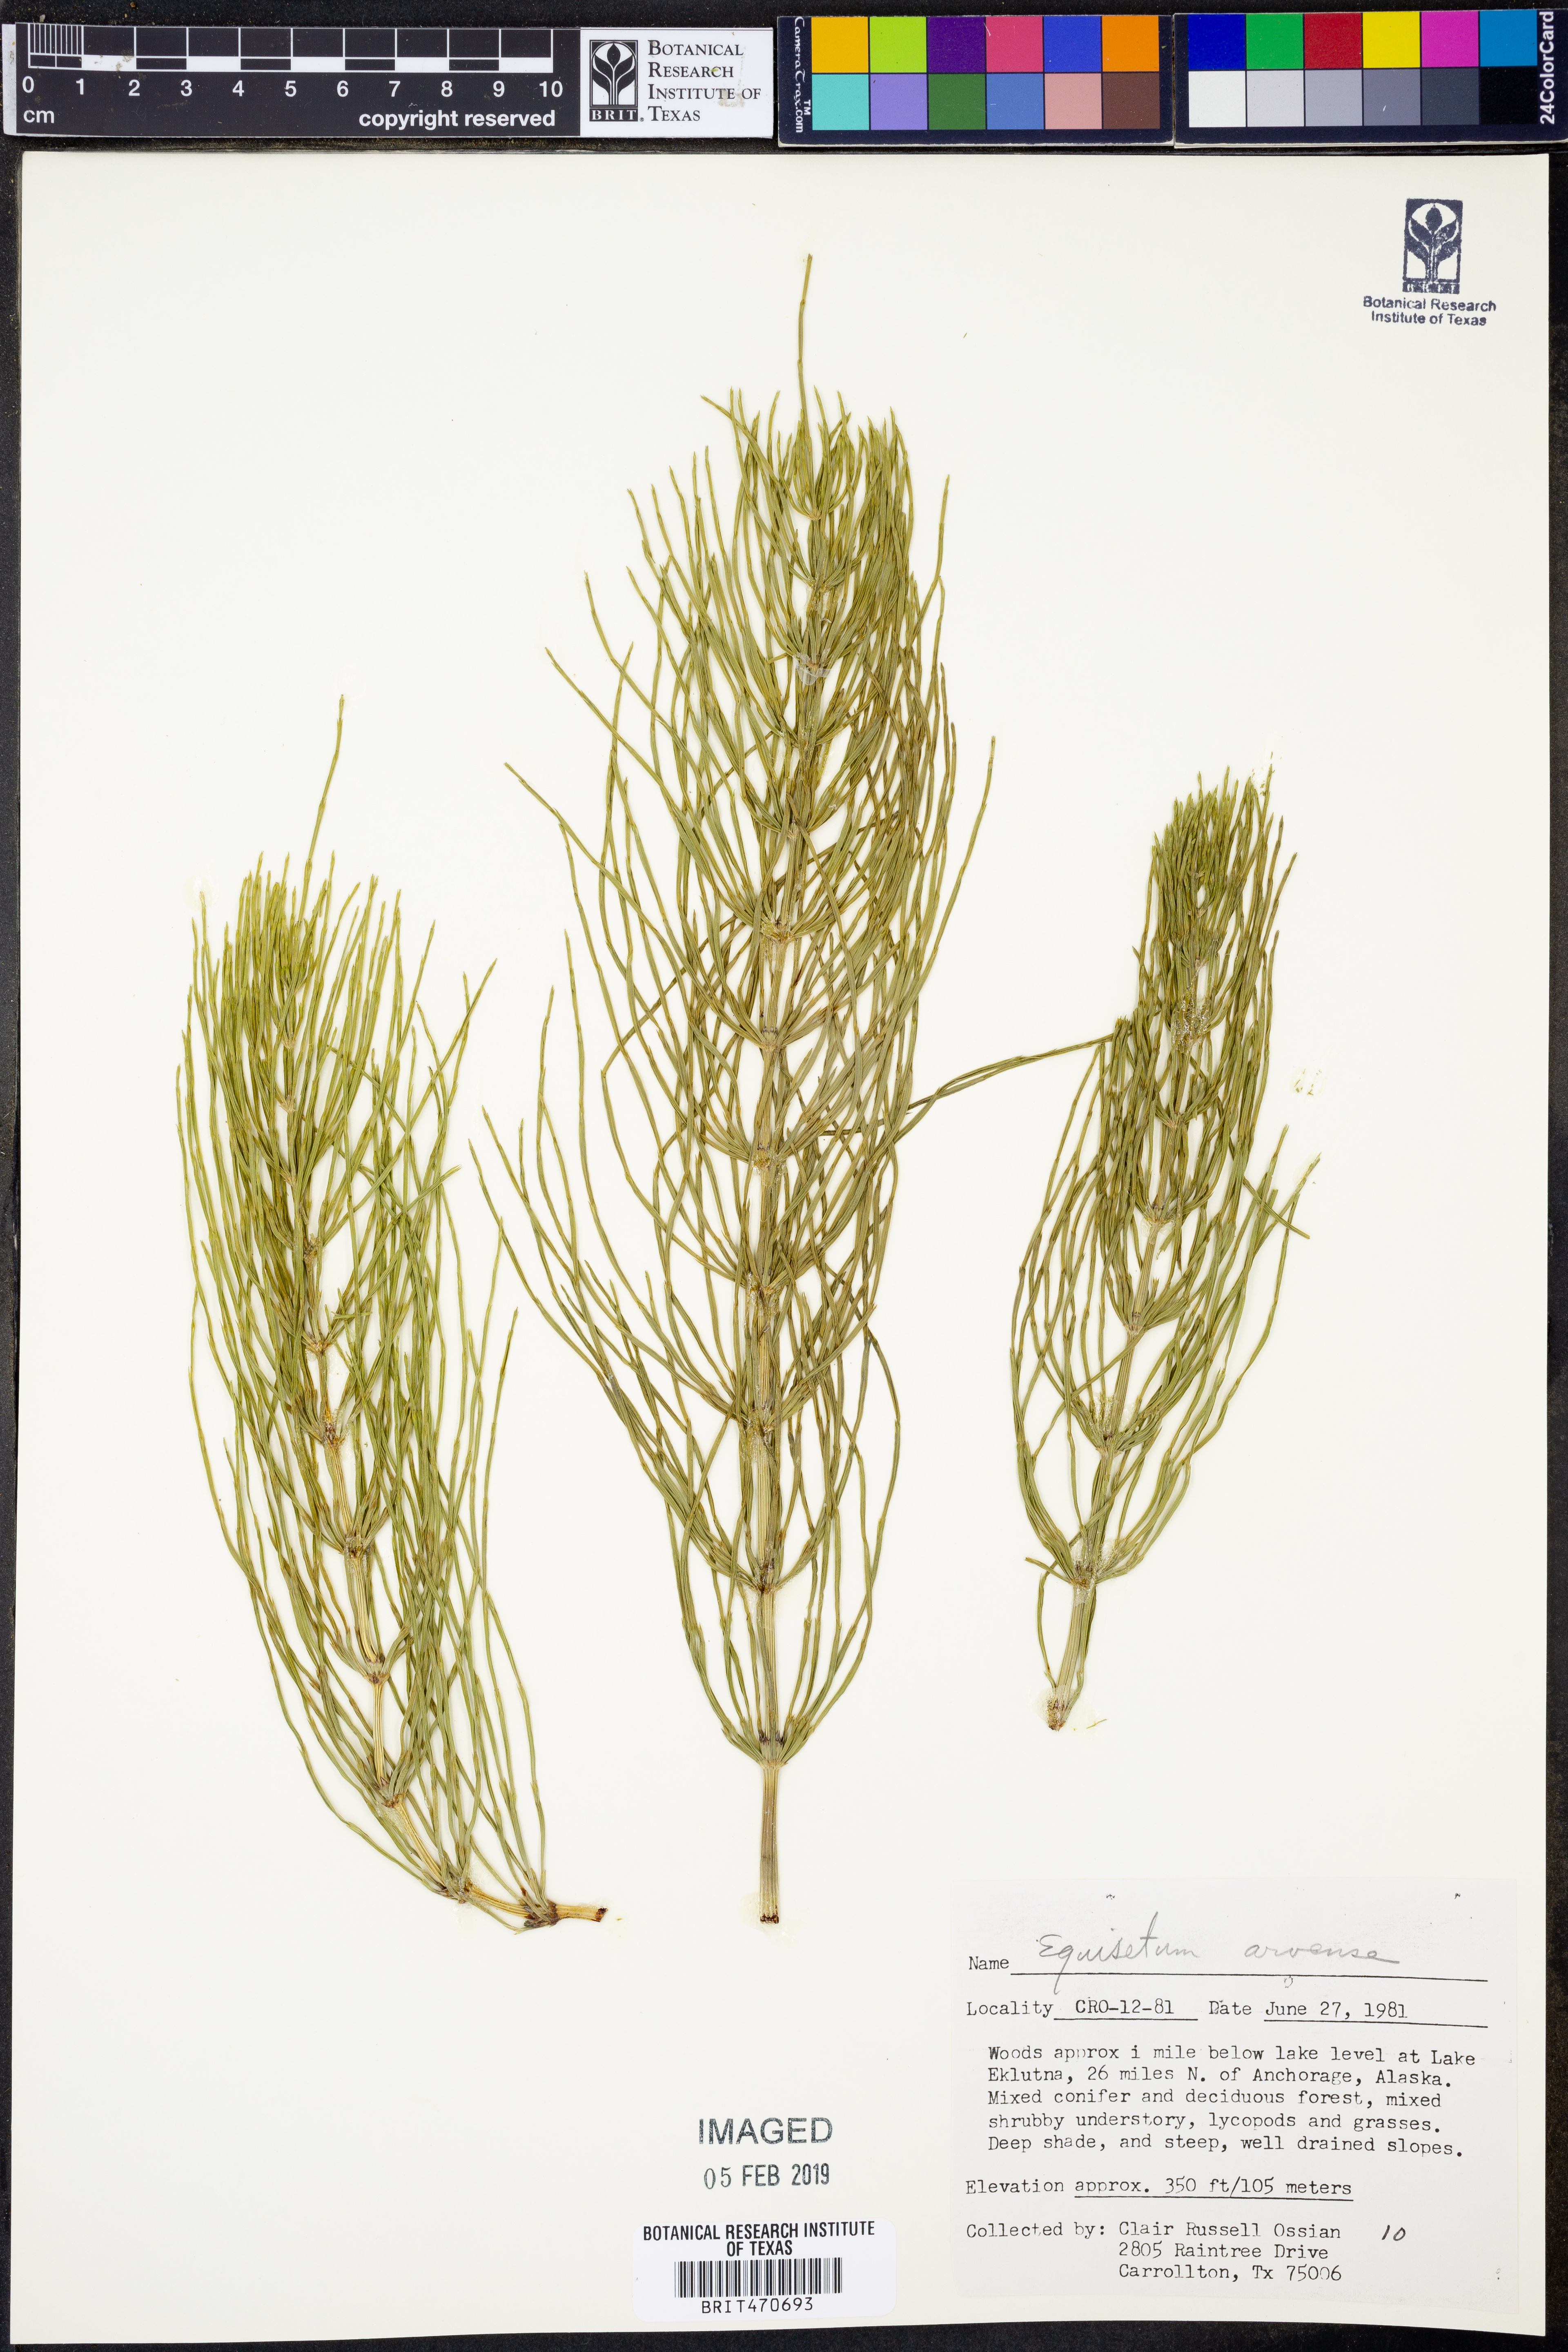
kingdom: Plantae
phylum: Tracheophyta
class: Polypodiopsida
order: Equisetales
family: Equisetaceae
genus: Equisetum
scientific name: Equisetum arvense
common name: Field horsetail
